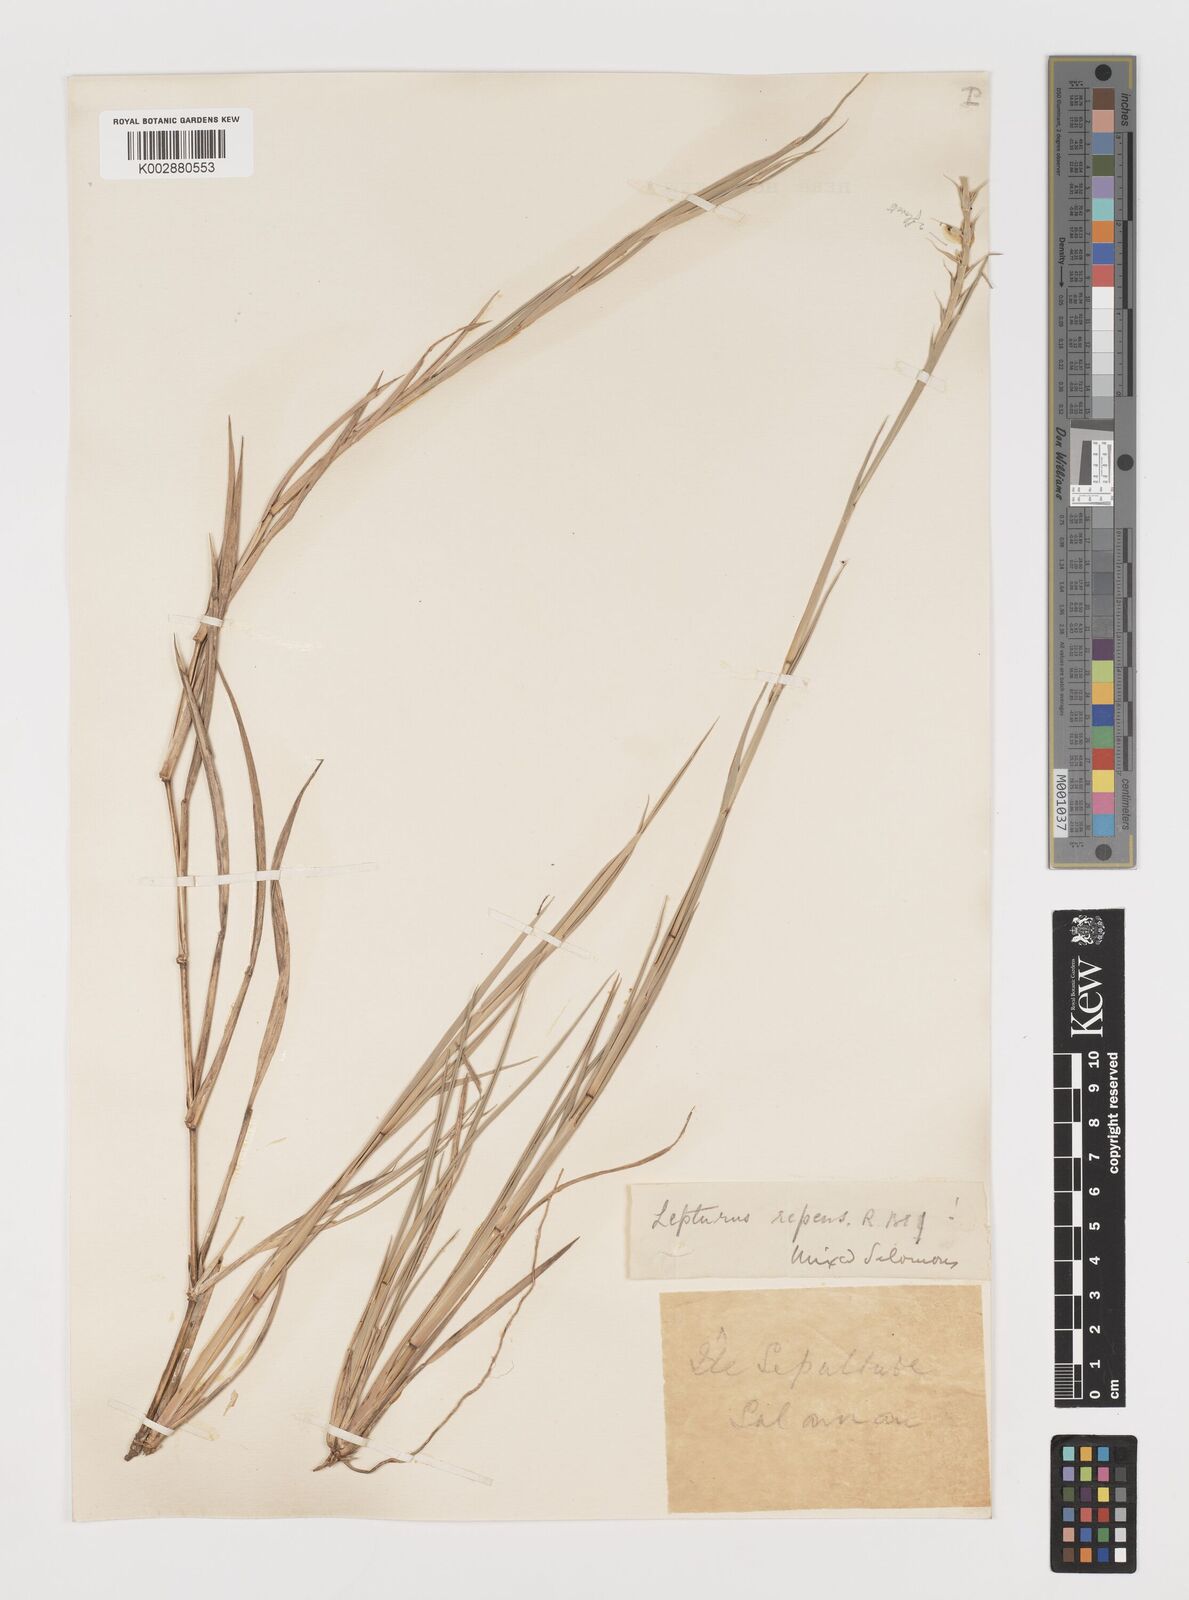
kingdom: Plantae
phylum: Tracheophyta
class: Liliopsida
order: Poales
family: Poaceae
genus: Lepturus
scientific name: Lepturus repens
